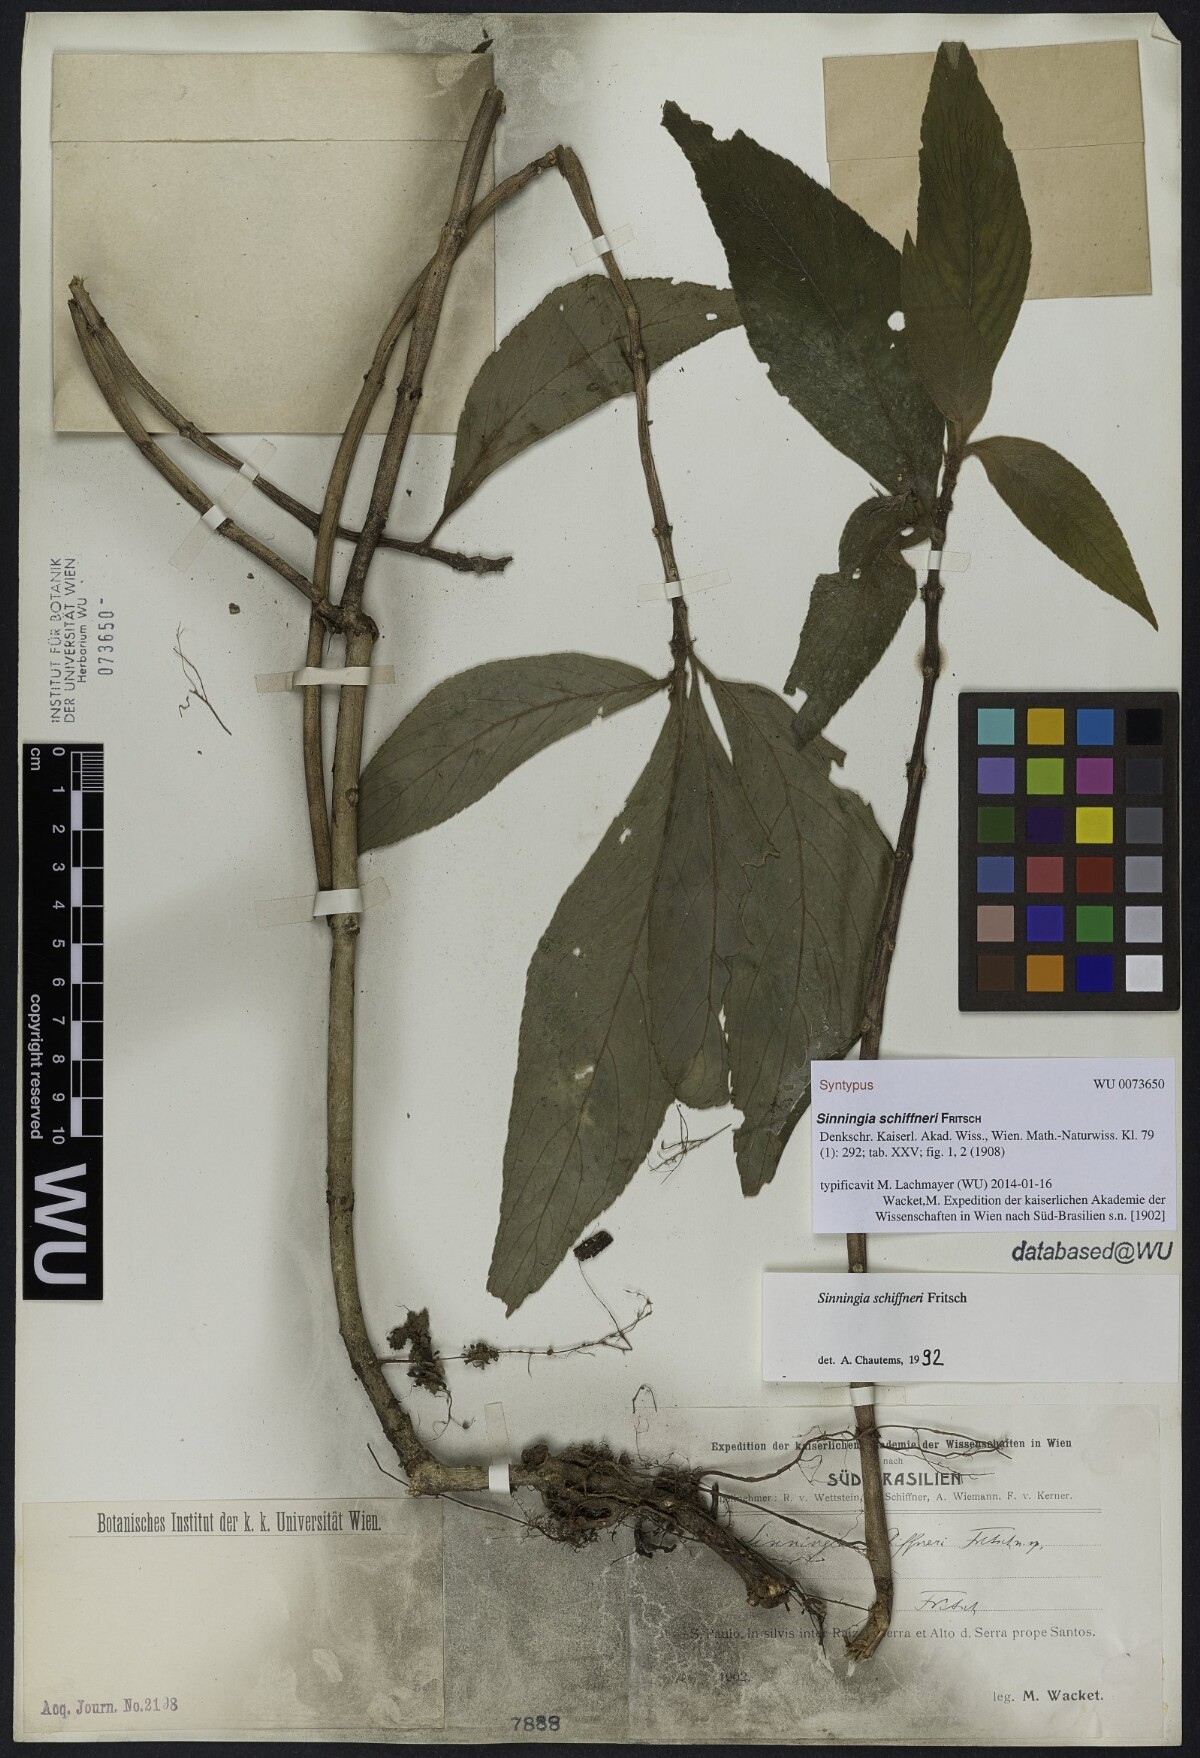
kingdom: Plantae
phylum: Tracheophyta
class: Magnoliopsida
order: Lamiales
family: Gesneriaceae
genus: Sinningia
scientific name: Sinningia schiffneri
